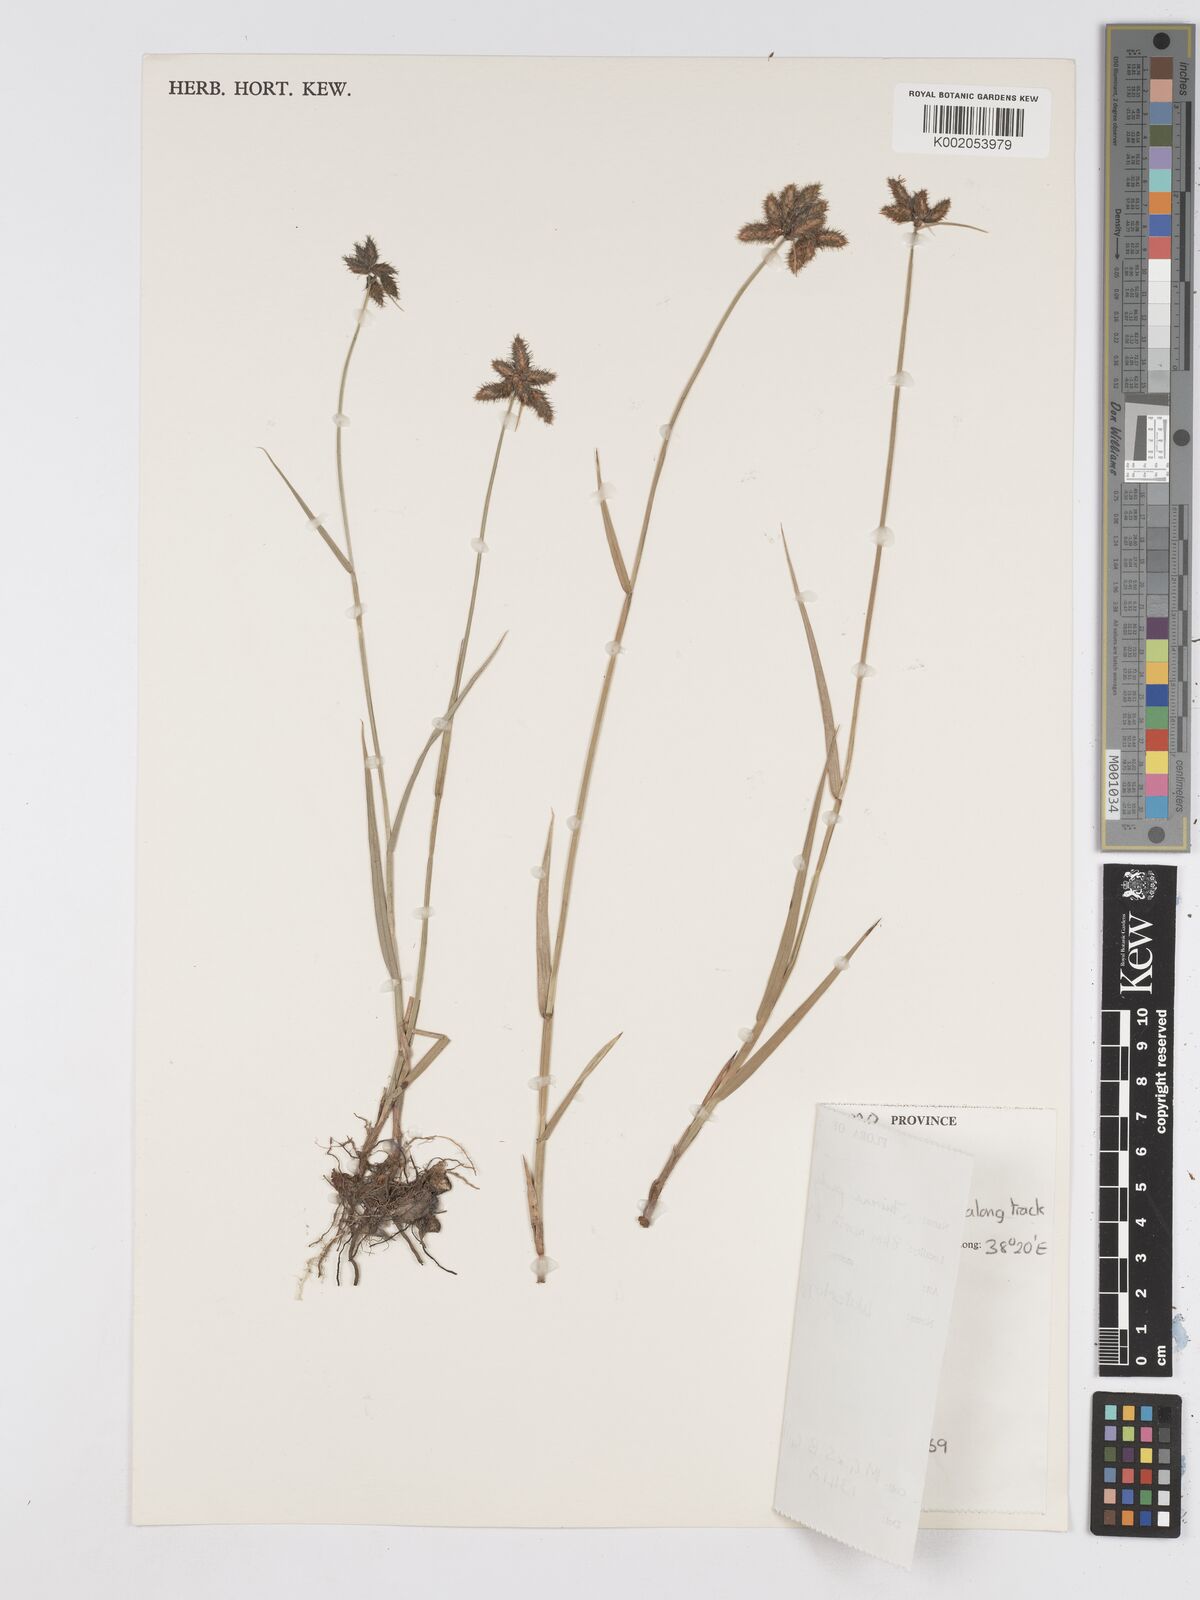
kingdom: Plantae
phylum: Tracheophyta
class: Liliopsida
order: Poales
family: Cyperaceae
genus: Fuirena
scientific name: Fuirena pachyrrhiza
